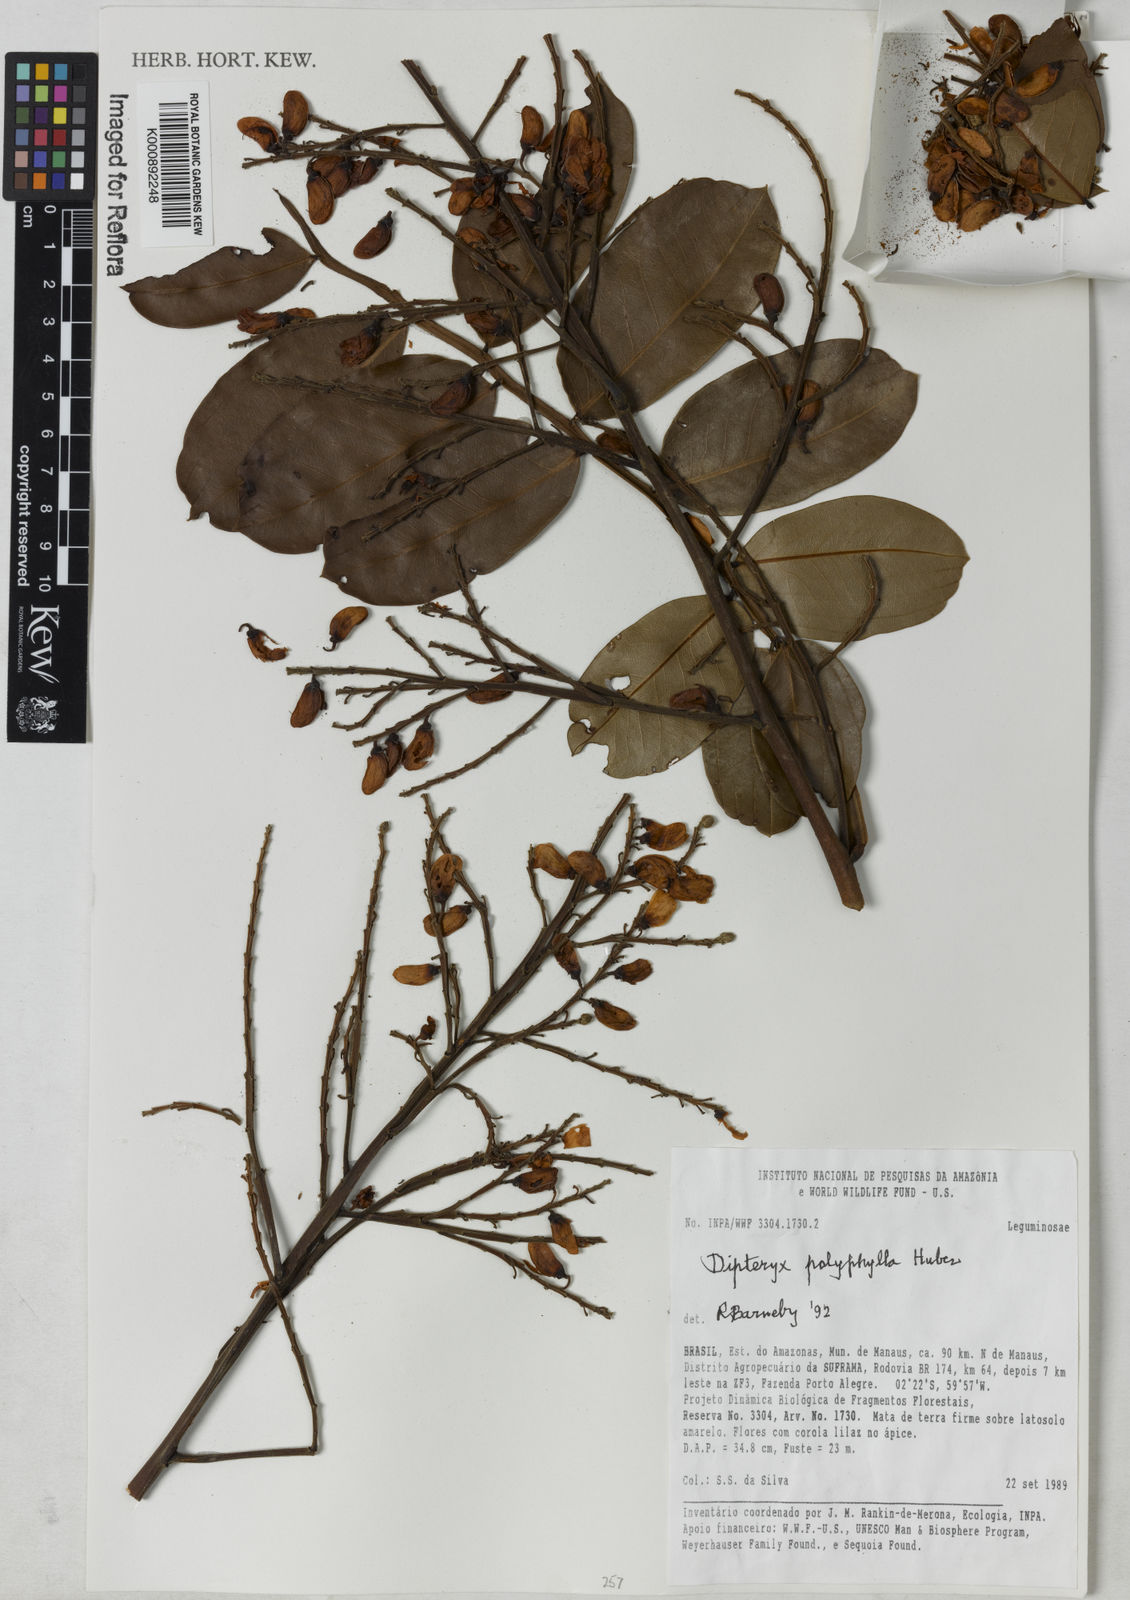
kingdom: Plantae
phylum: Tracheophyta
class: Magnoliopsida
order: Fabales
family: Fabaceae
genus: Dipteryx
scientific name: Dipteryx polyphylla
